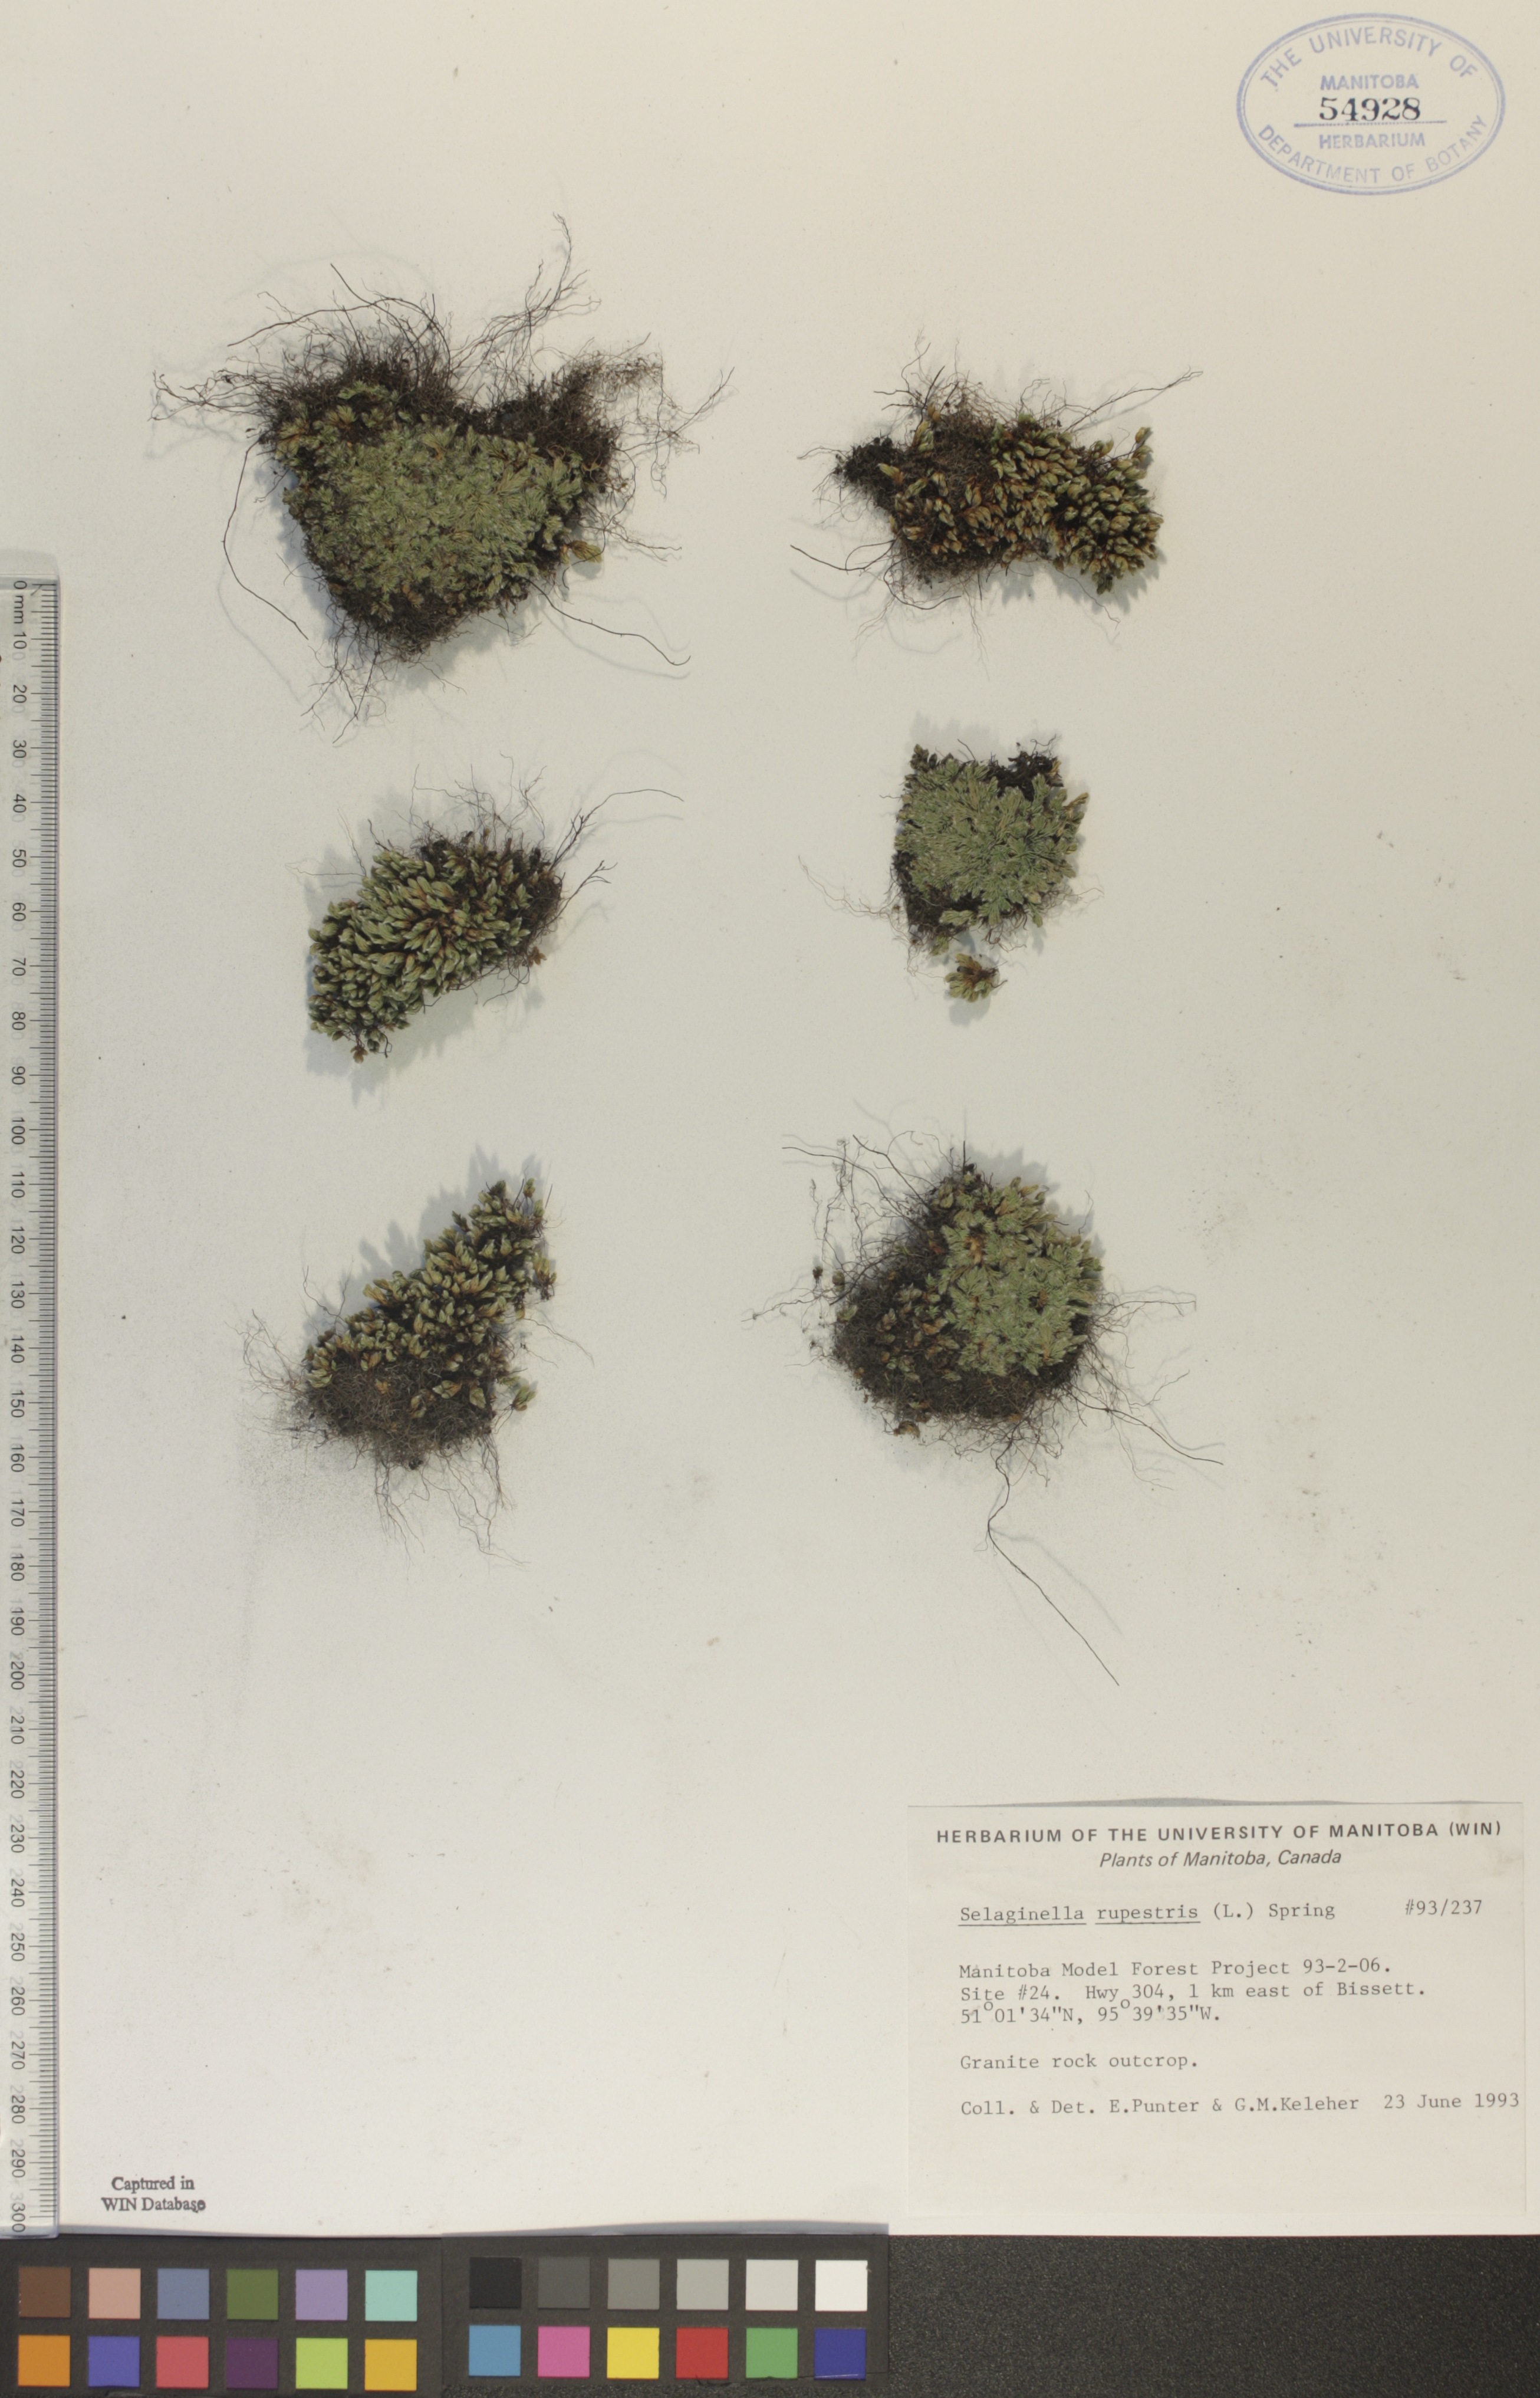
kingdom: Plantae
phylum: Tracheophyta
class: Lycopodiopsida
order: Selaginellales
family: Selaginellaceae
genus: Selaginella
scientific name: Selaginella rupestris
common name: Dwarf spikemoss
